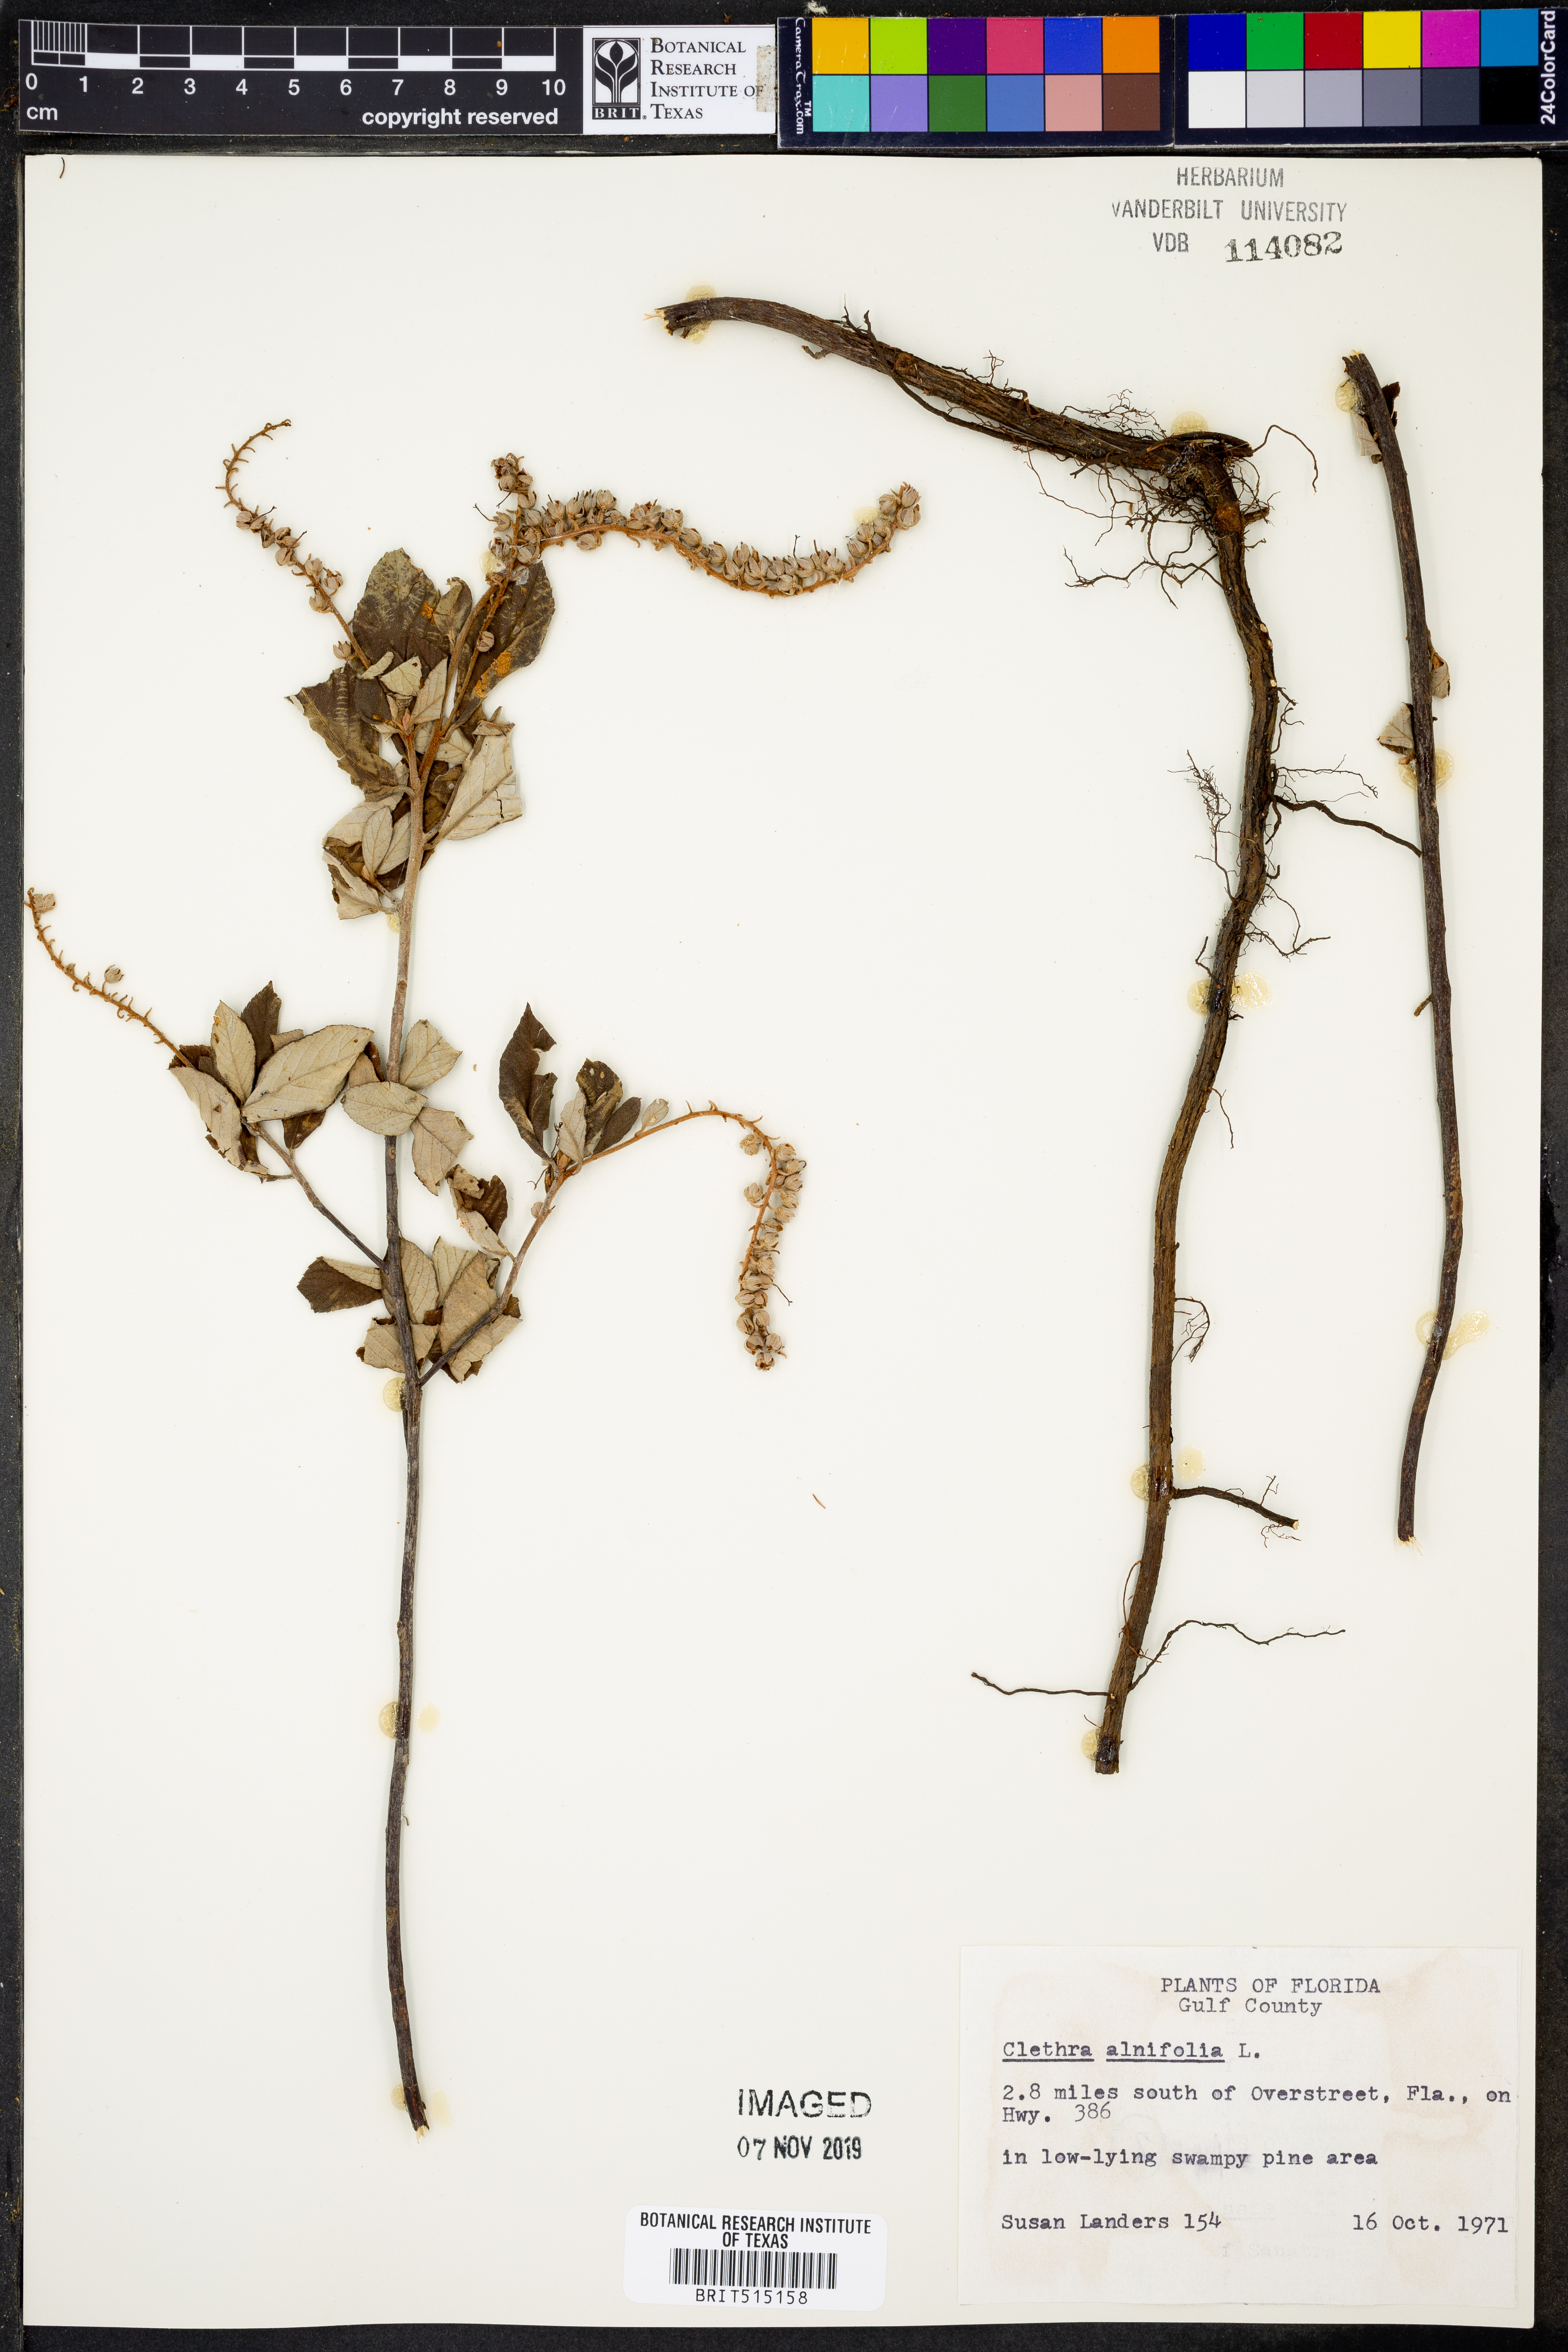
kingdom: Plantae
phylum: Tracheophyta
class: Magnoliopsida
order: Ericales
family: Clethraceae
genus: Clethra
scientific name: Clethra alnifolia
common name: Sweet pepperbush
